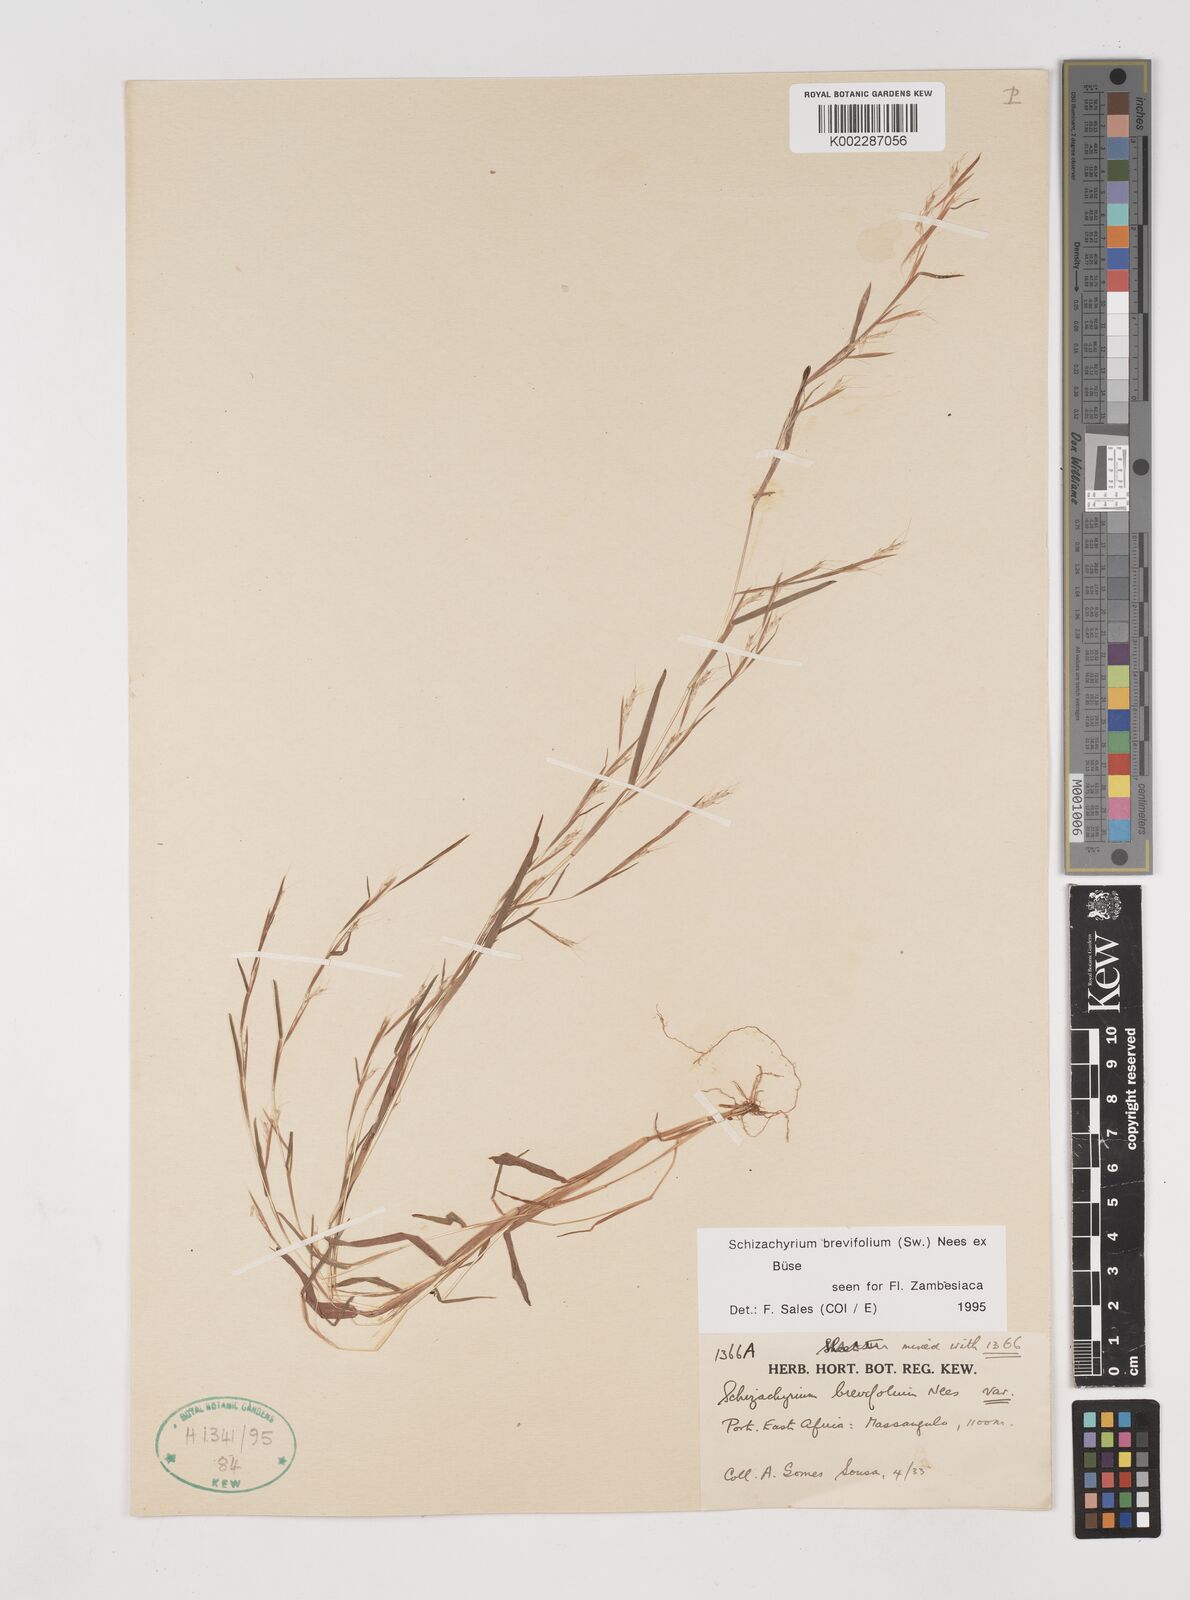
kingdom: Plantae
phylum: Tracheophyta
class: Liliopsida
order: Poales
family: Poaceae
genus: Schizachyrium
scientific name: Schizachyrium brevifolium
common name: Serillo dulce
